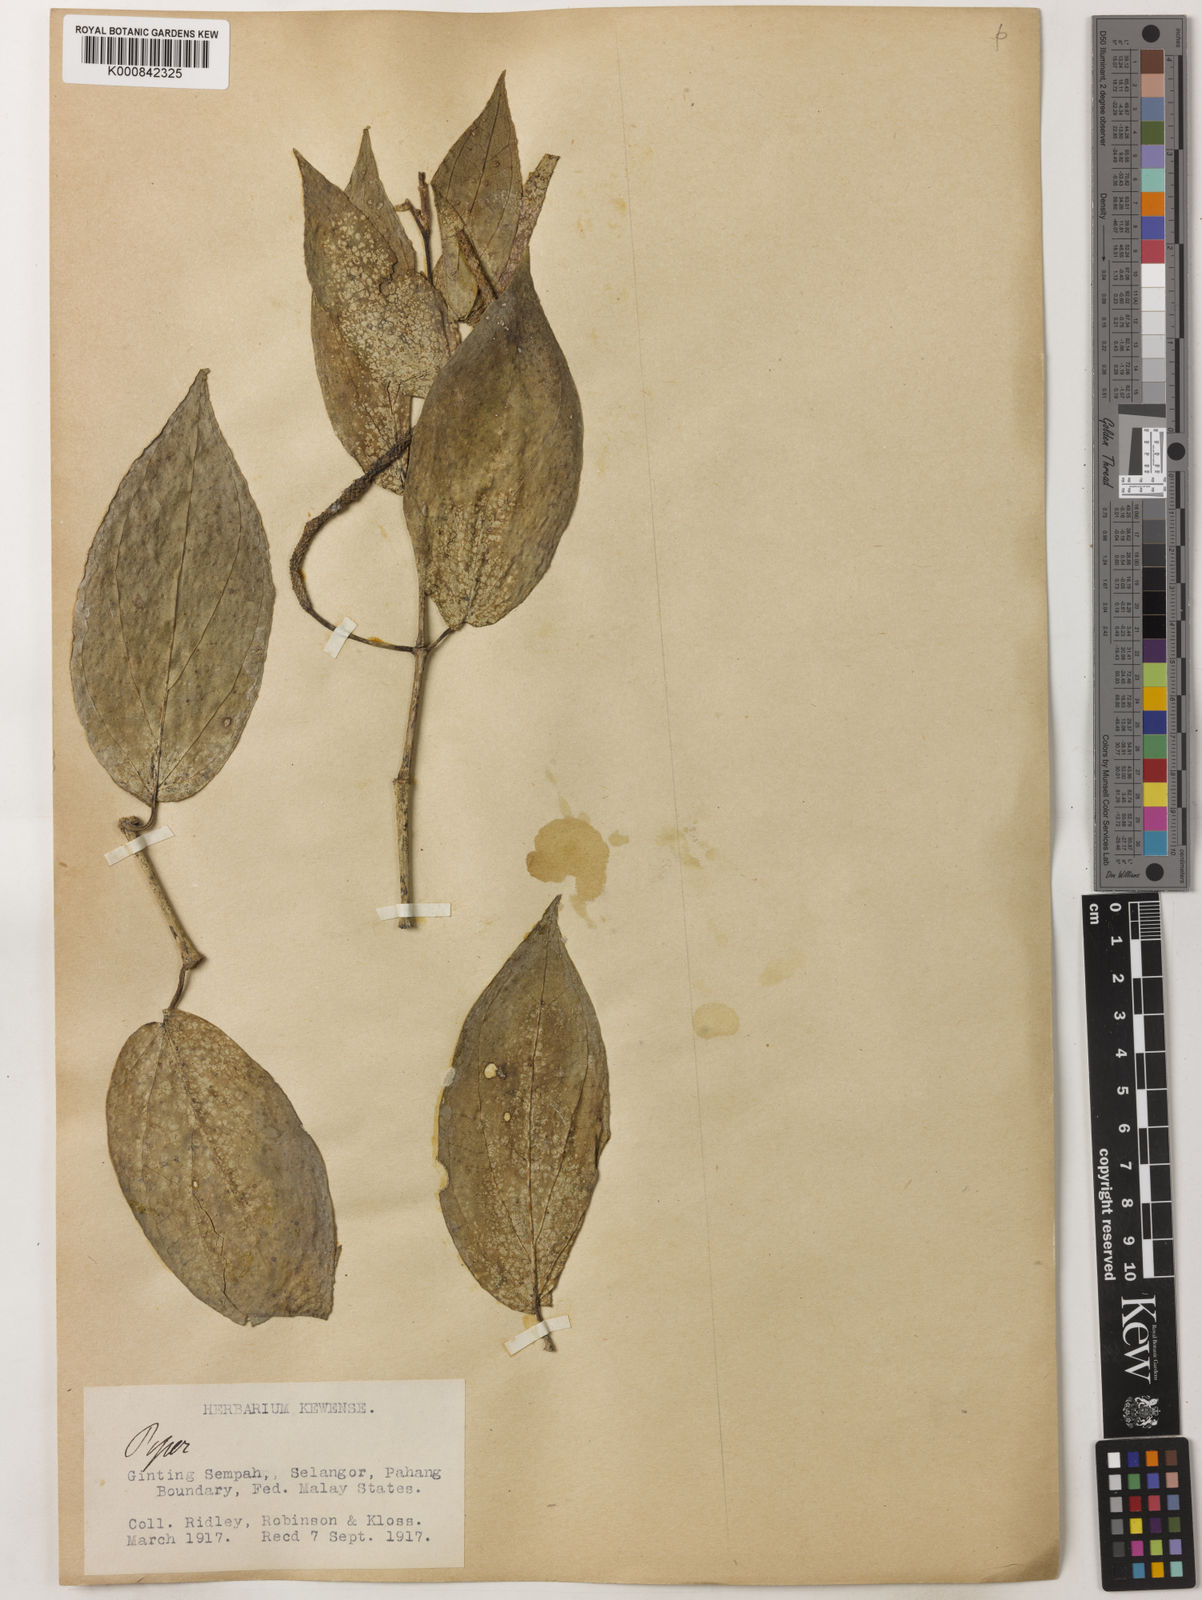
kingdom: Plantae
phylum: Tracheophyta
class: Magnoliopsida
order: Piperales
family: Piperaceae
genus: Piper
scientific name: Piper macropiper
